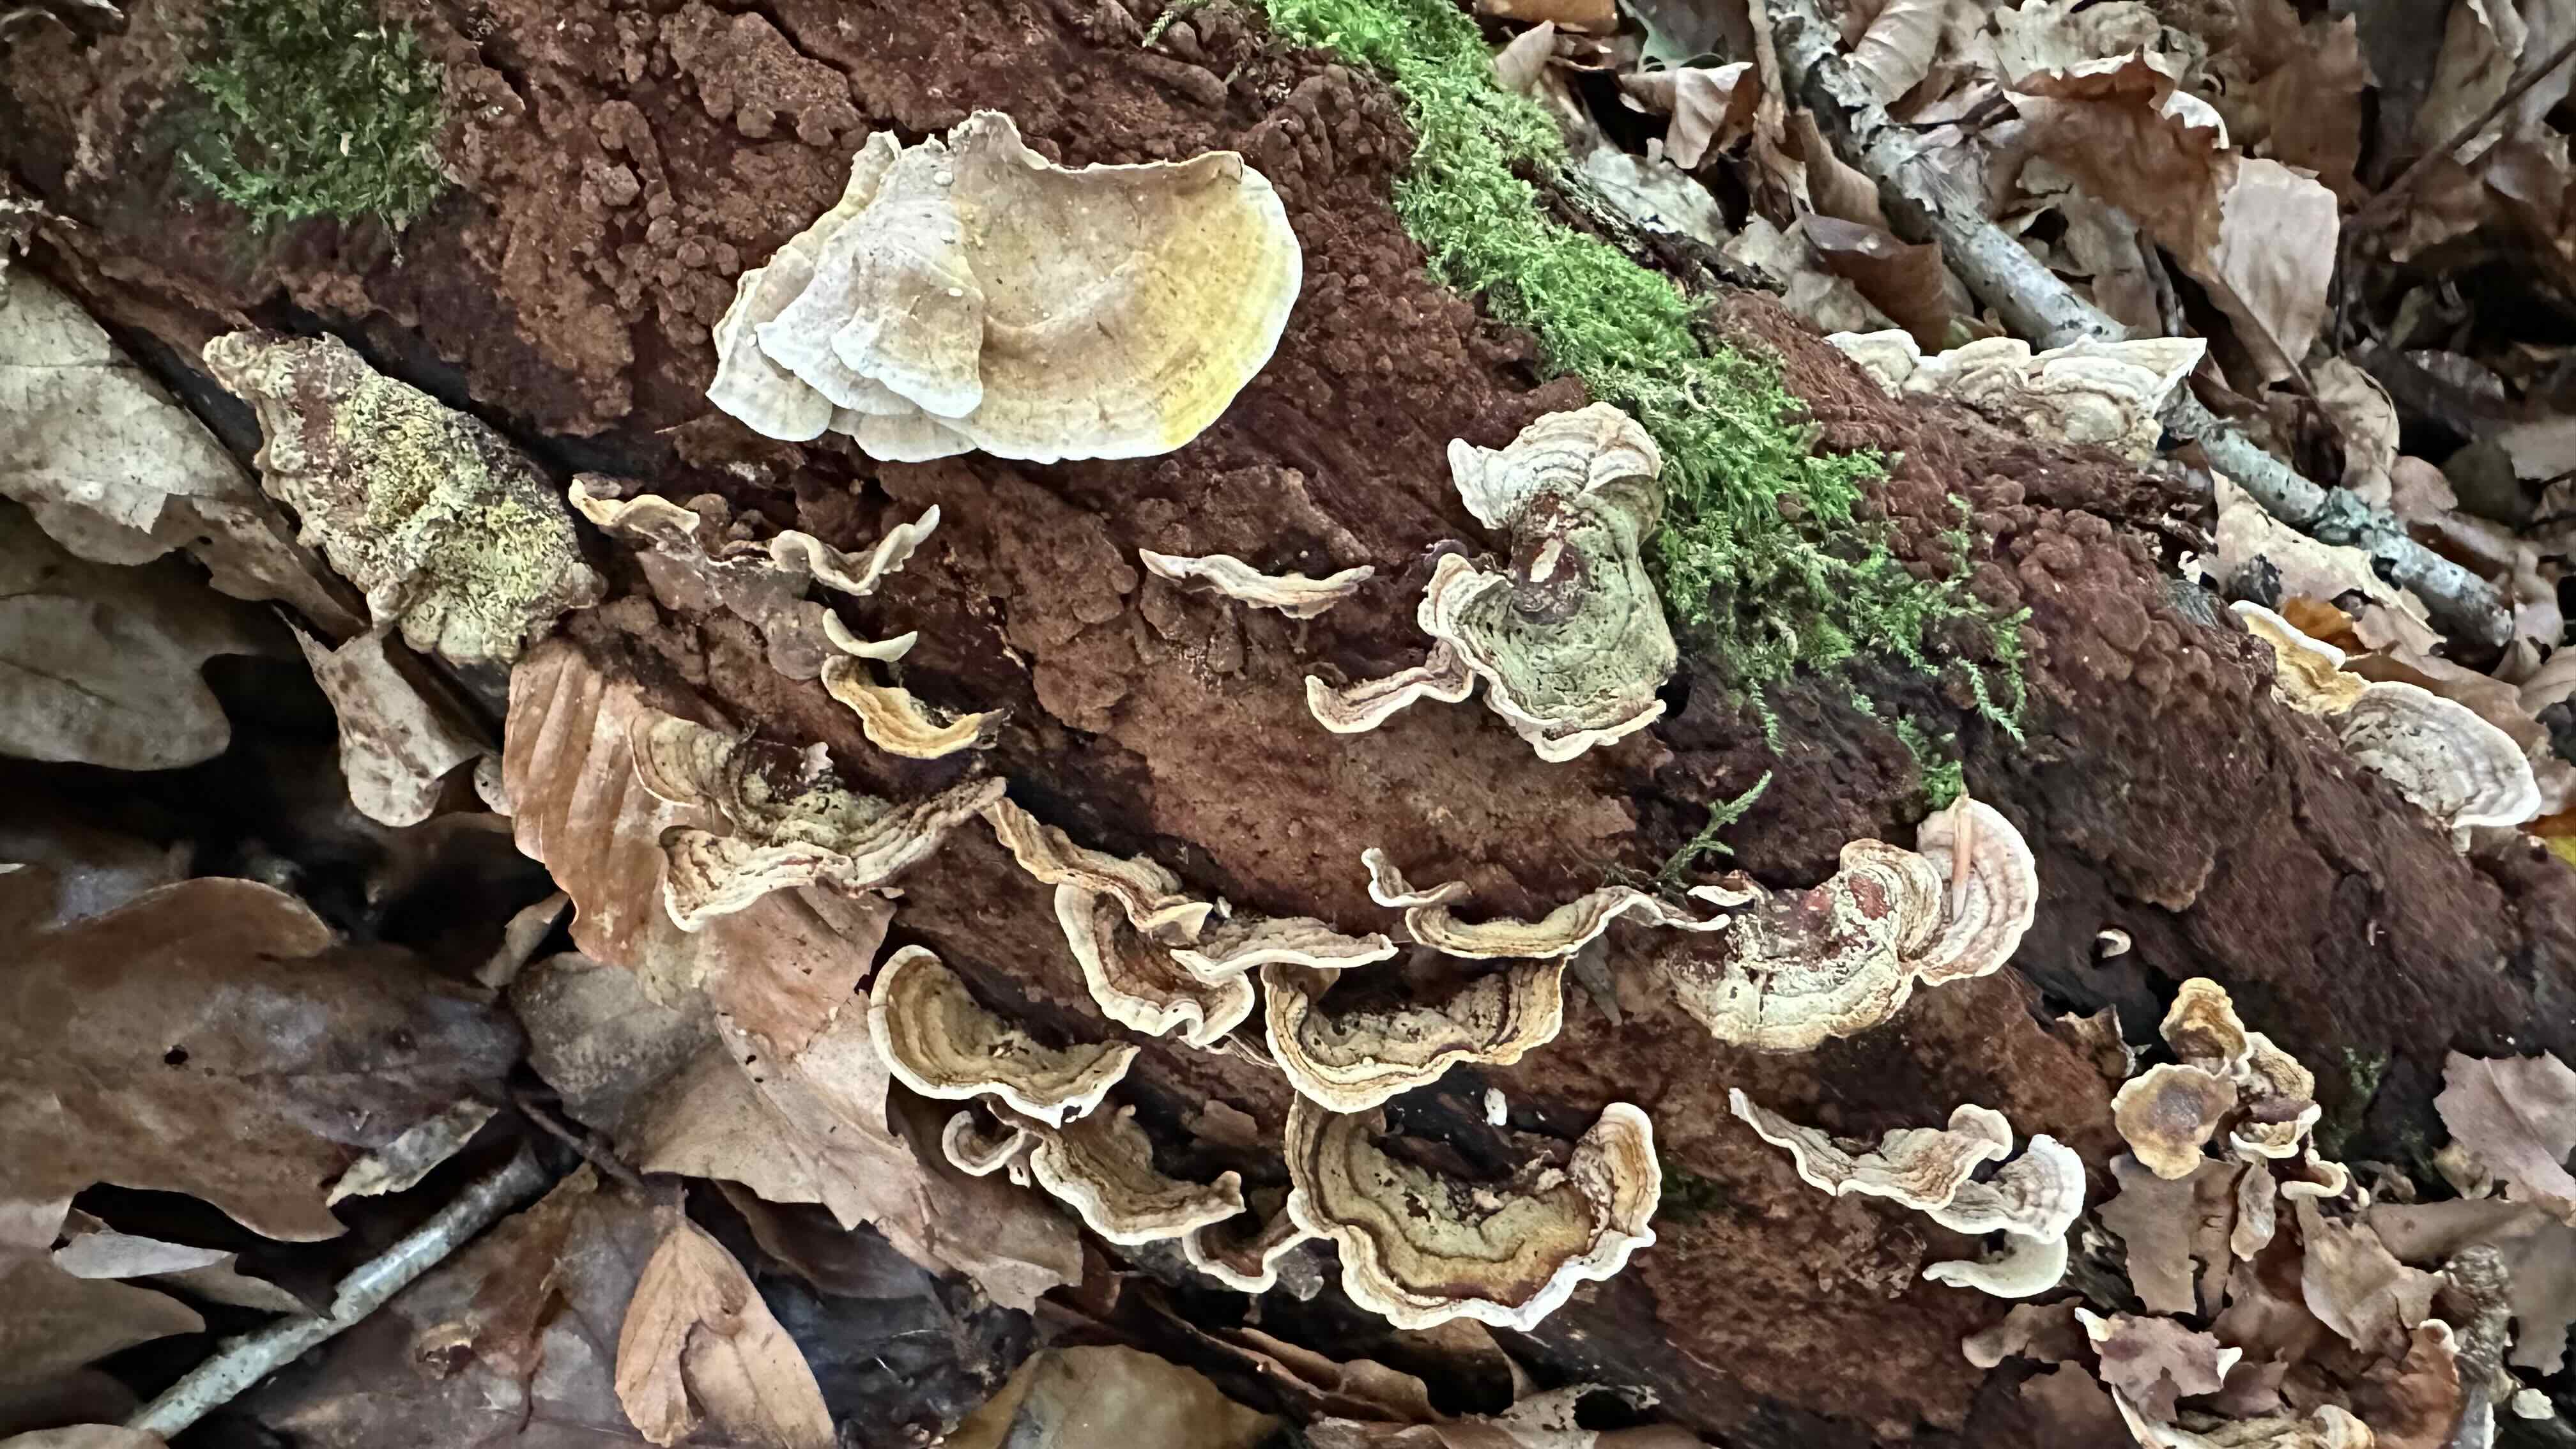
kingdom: Fungi
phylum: Basidiomycota
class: Agaricomycetes
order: Russulales
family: Stereaceae
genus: Stereum
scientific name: Stereum subtomentosum
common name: smuk lædersvamp
